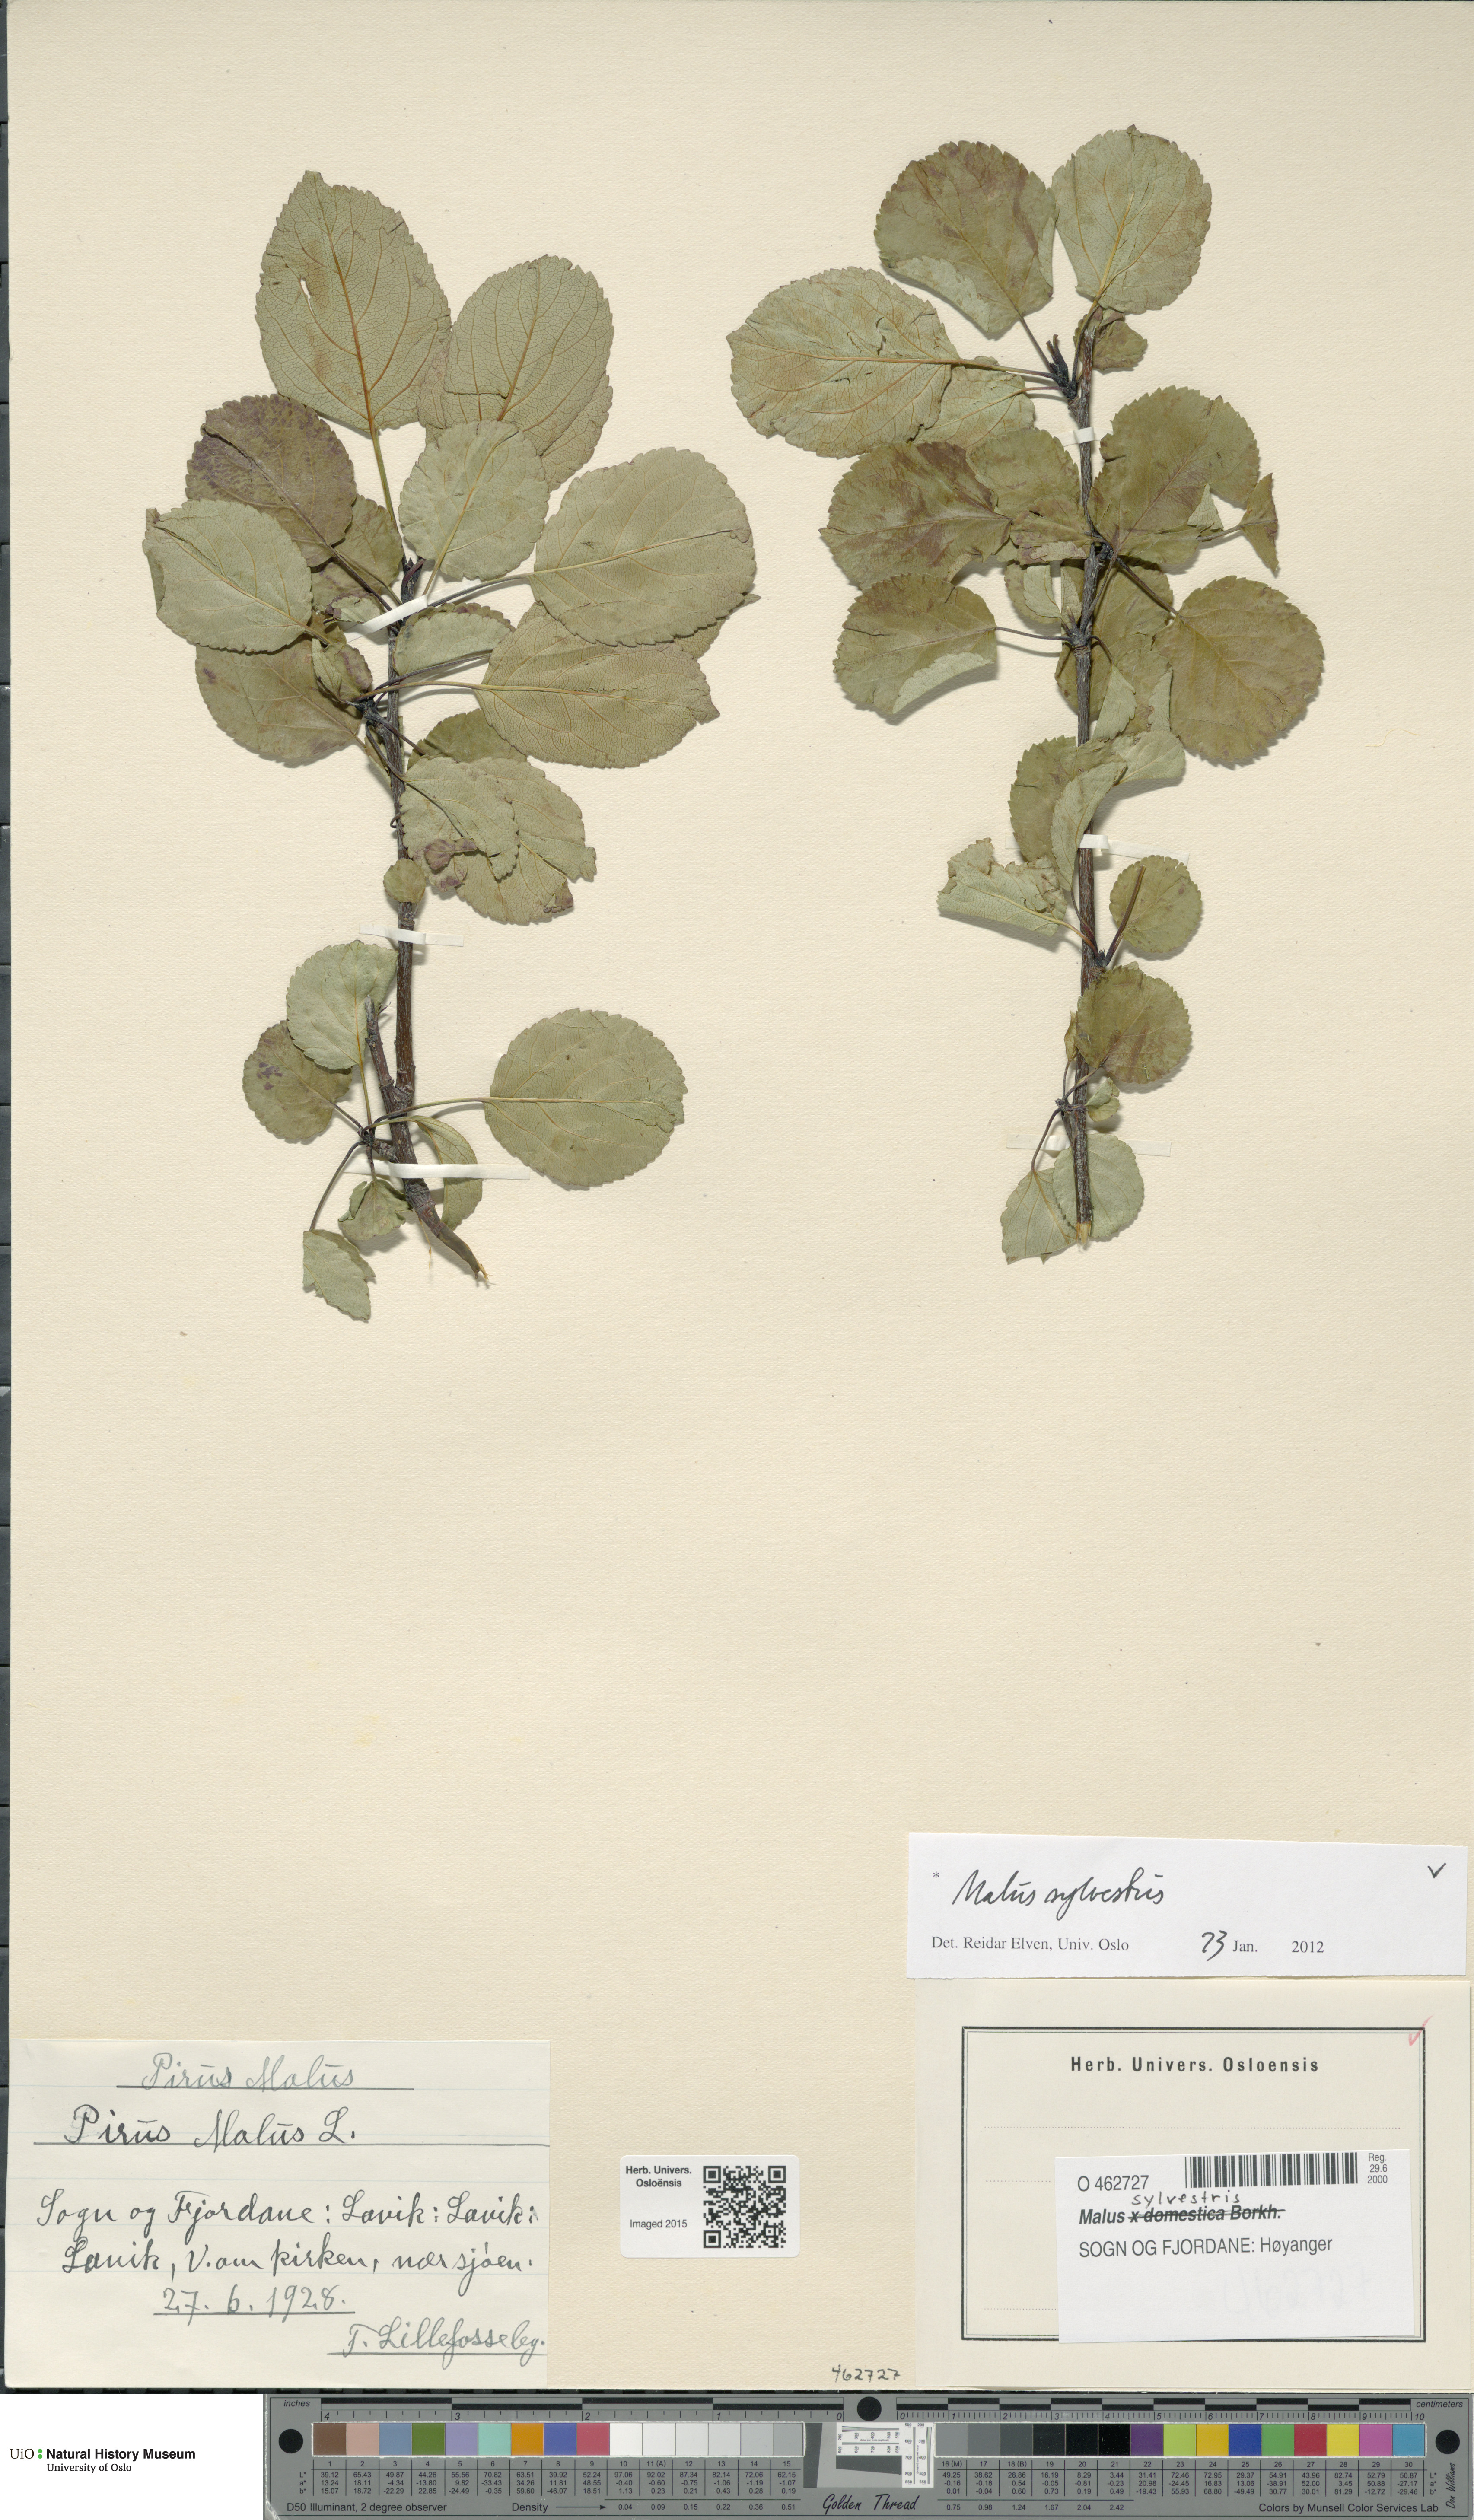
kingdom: Plantae
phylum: Tracheophyta
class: Magnoliopsida
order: Rosales
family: Rosaceae
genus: Malus
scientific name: Malus sylvestris
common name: Crab apple
